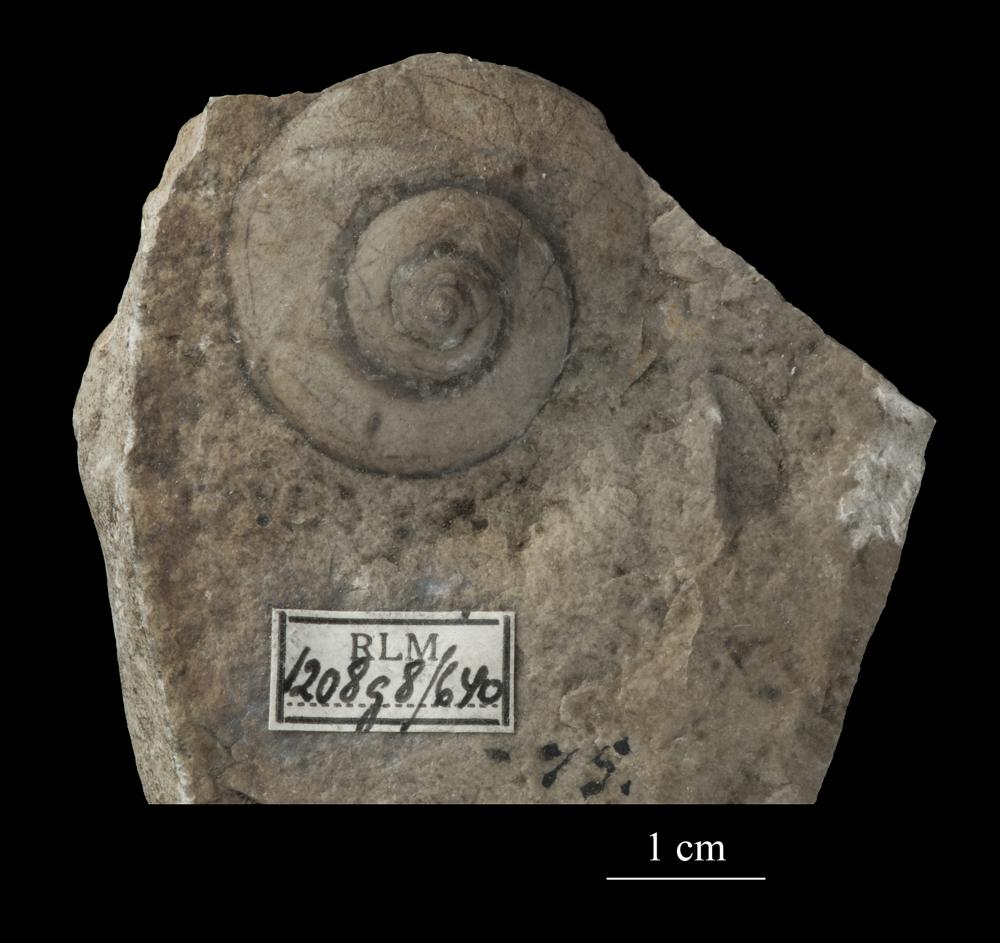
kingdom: Animalia
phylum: Mollusca
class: Gastropoda
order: Neogastropoda
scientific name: Neogastropoda
